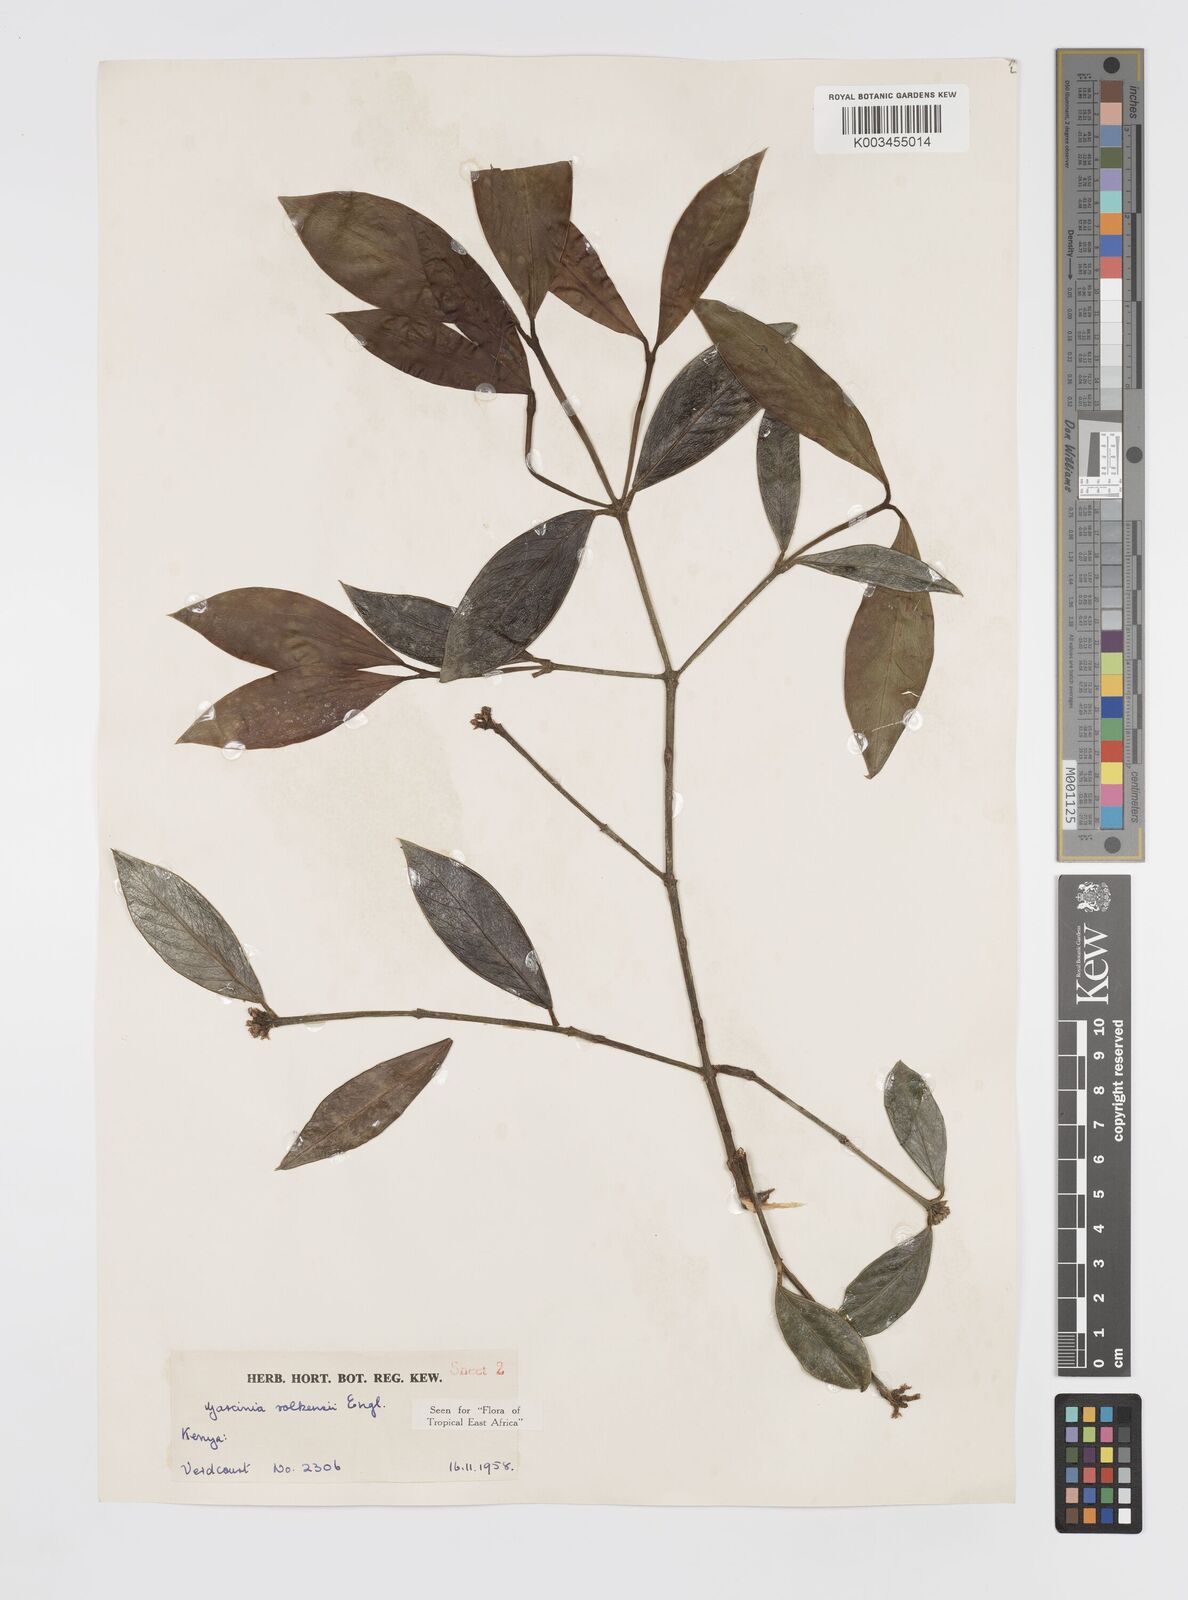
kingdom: Plantae
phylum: Tracheophyta
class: Magnoliopsida
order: Malpighiales
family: Clusiaceae
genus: Garcinia
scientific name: Garcinia volkensii
